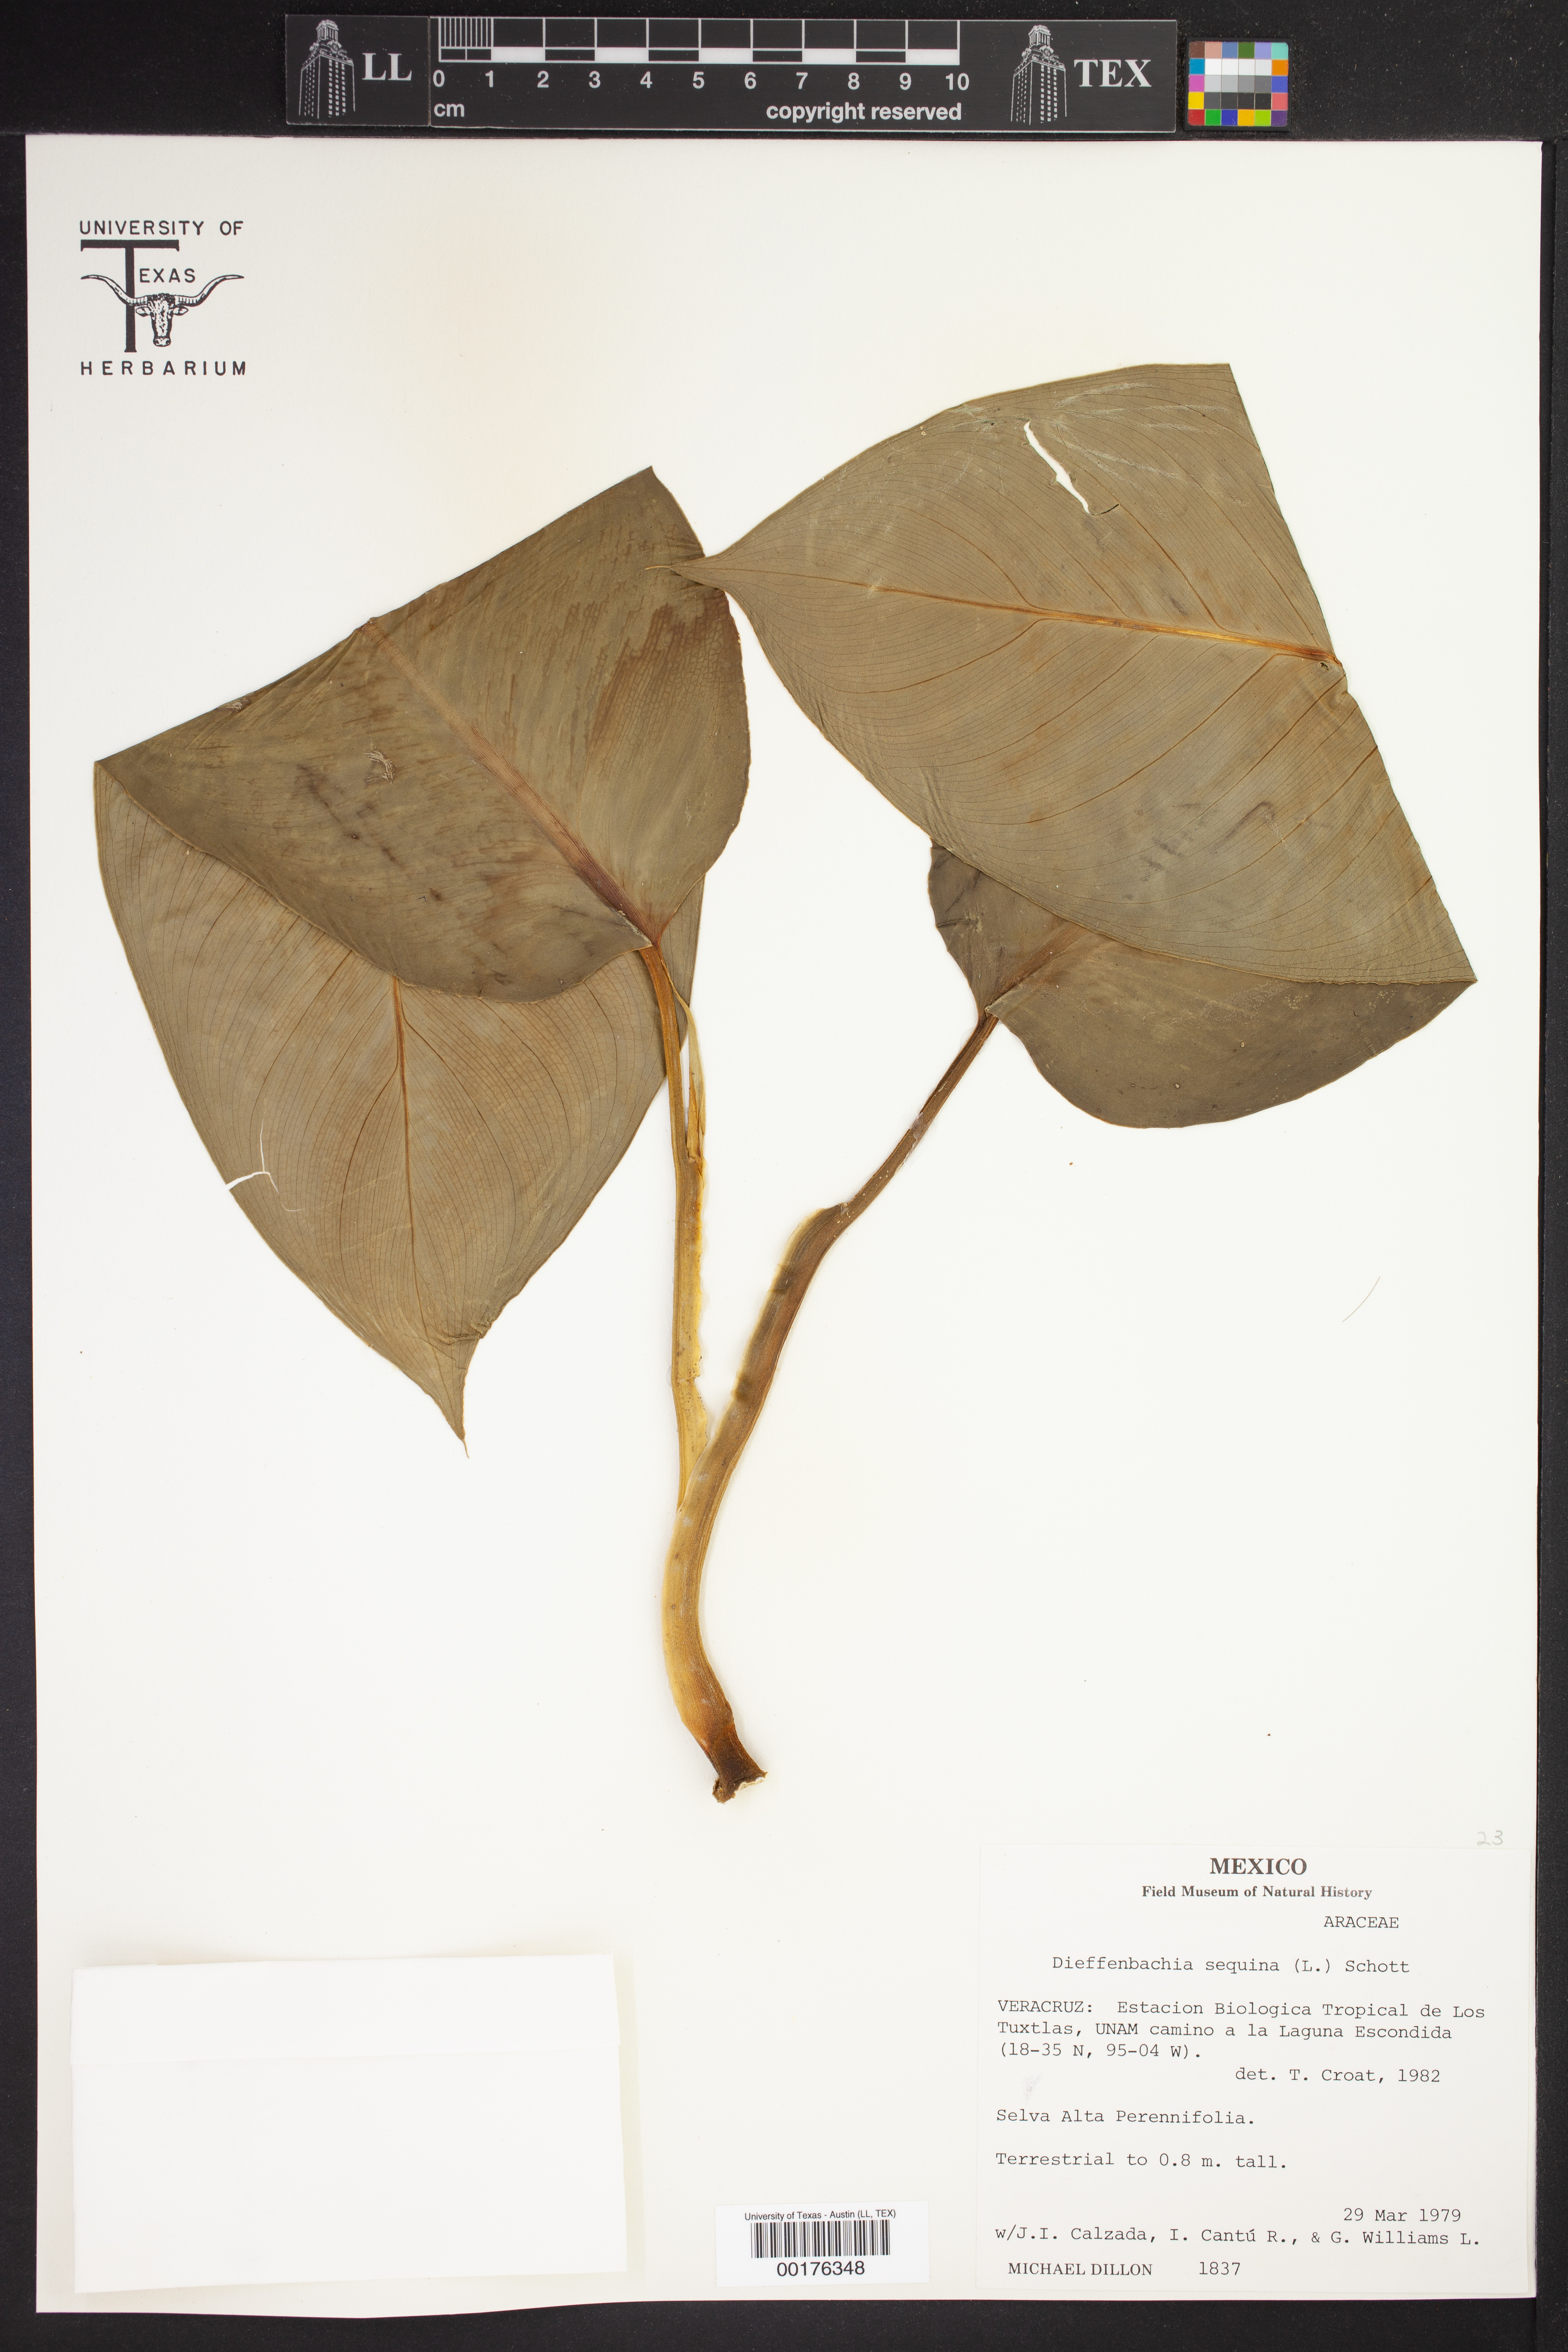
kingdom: Plantae
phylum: Tracheophyta
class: Liliopsida
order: Alismatales
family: Araceae
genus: Dieffenbachia
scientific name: Dieffenbachia seguine
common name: Dumbcane
